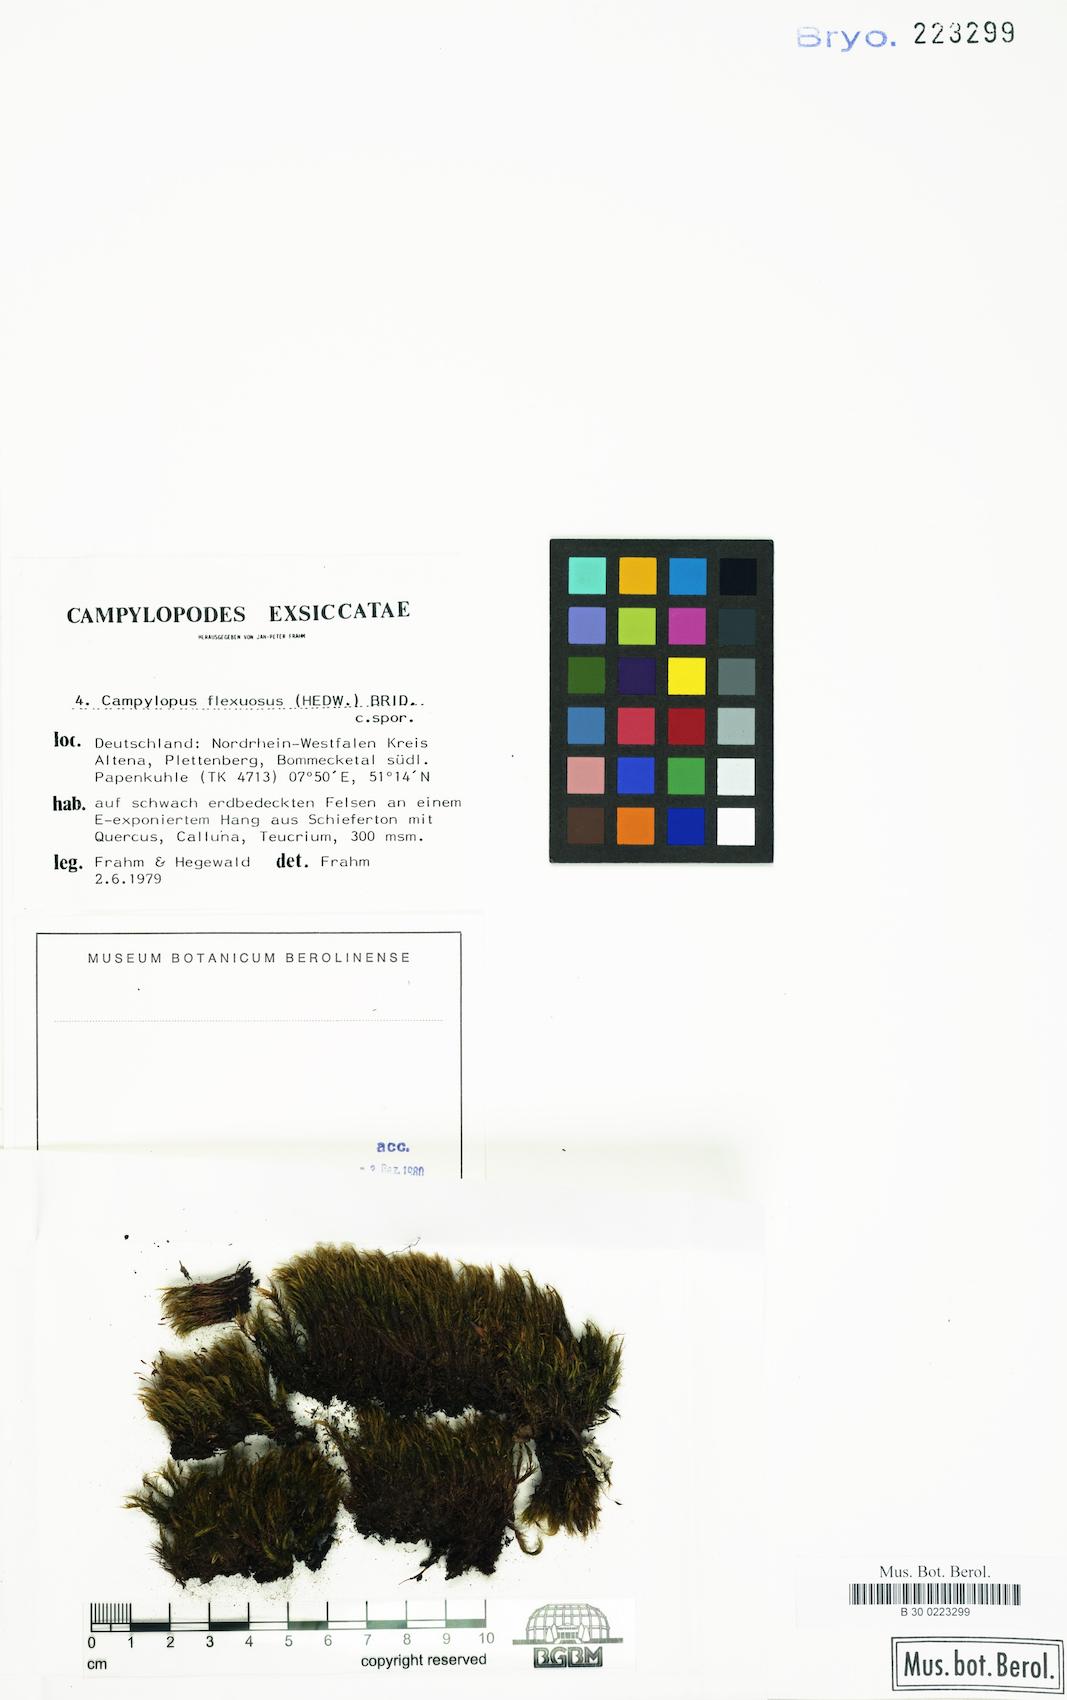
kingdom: Plantae
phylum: Bryophyta
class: Bryopsida
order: Dicranales
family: Leucobryaceae
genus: Campylopus
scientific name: Campylopus flexuosus
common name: Rusty swan-neck moss
